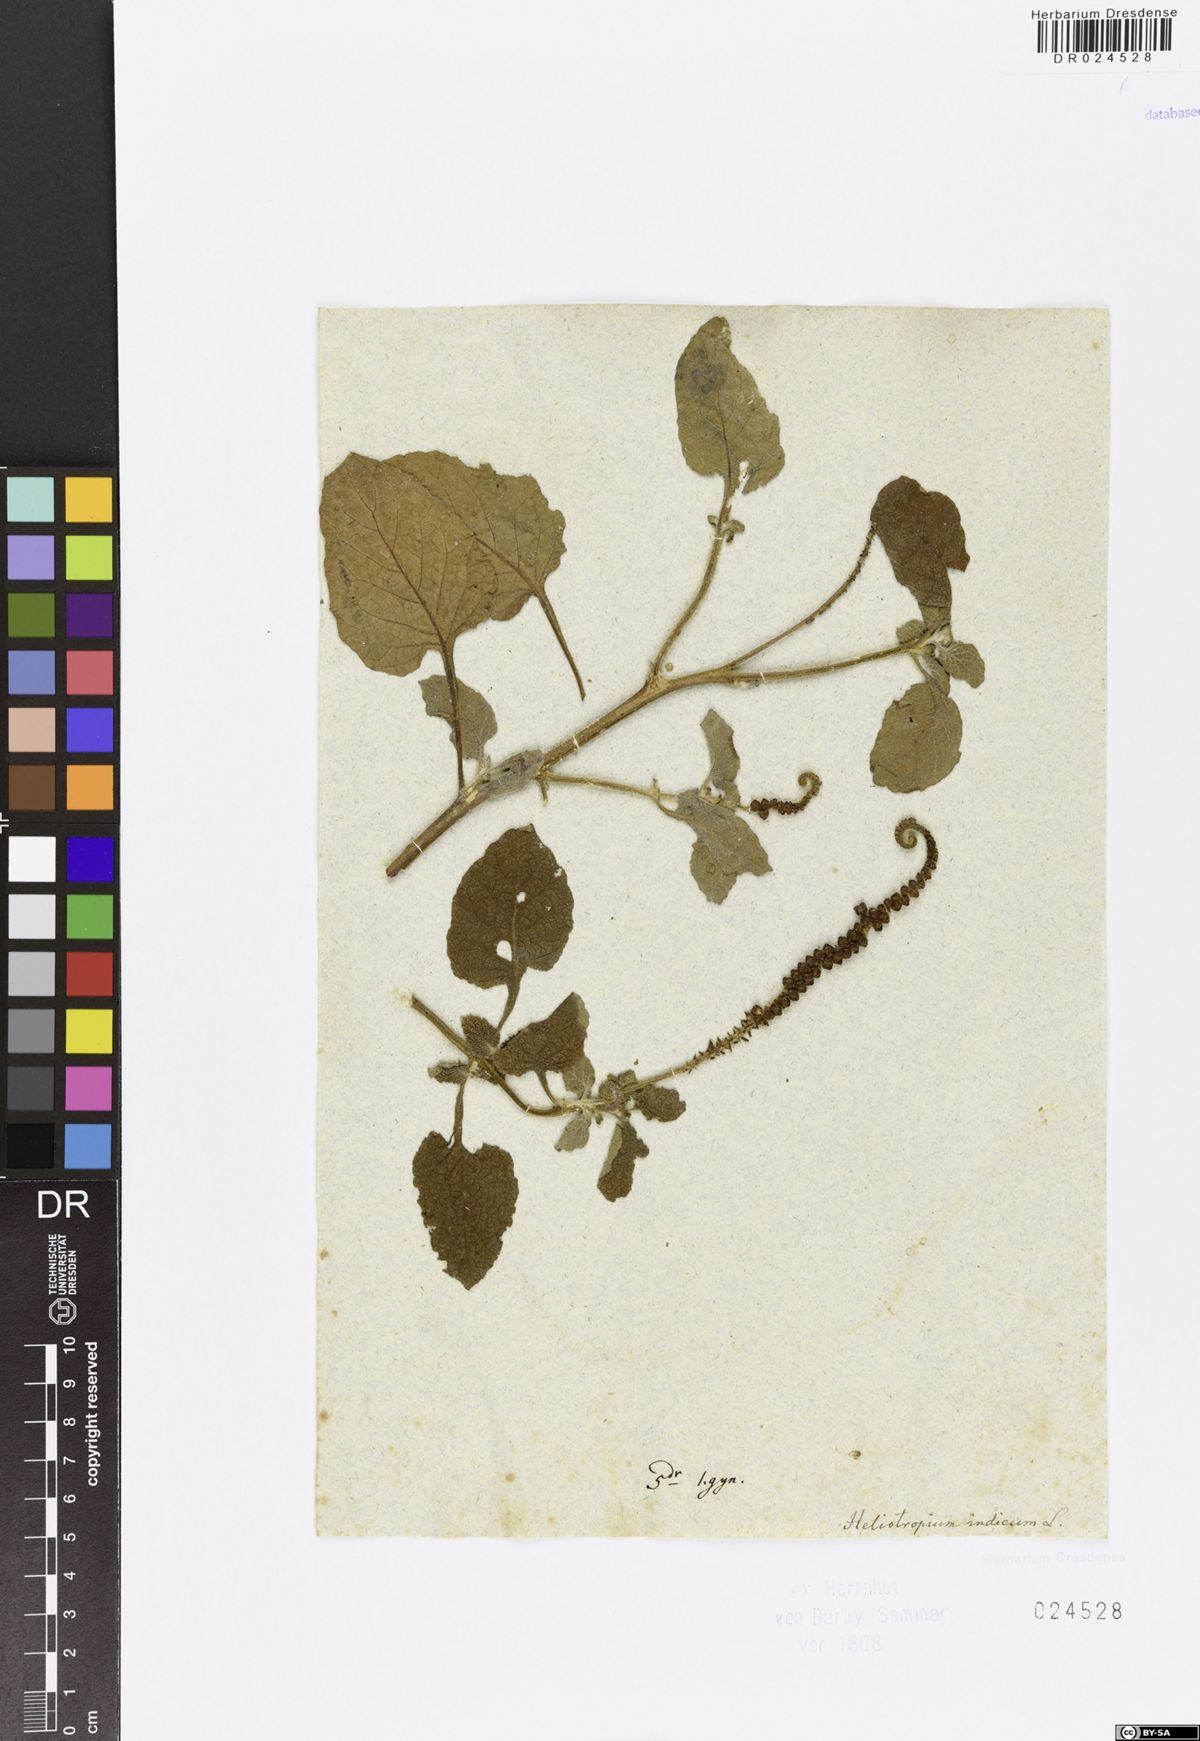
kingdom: Plantae
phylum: Tracheophyta
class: Magnoliopsida
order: Boraginales
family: Heliotropiaceae
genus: Heliotropium
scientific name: Heliotropium indicum
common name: Indian heliotrope
